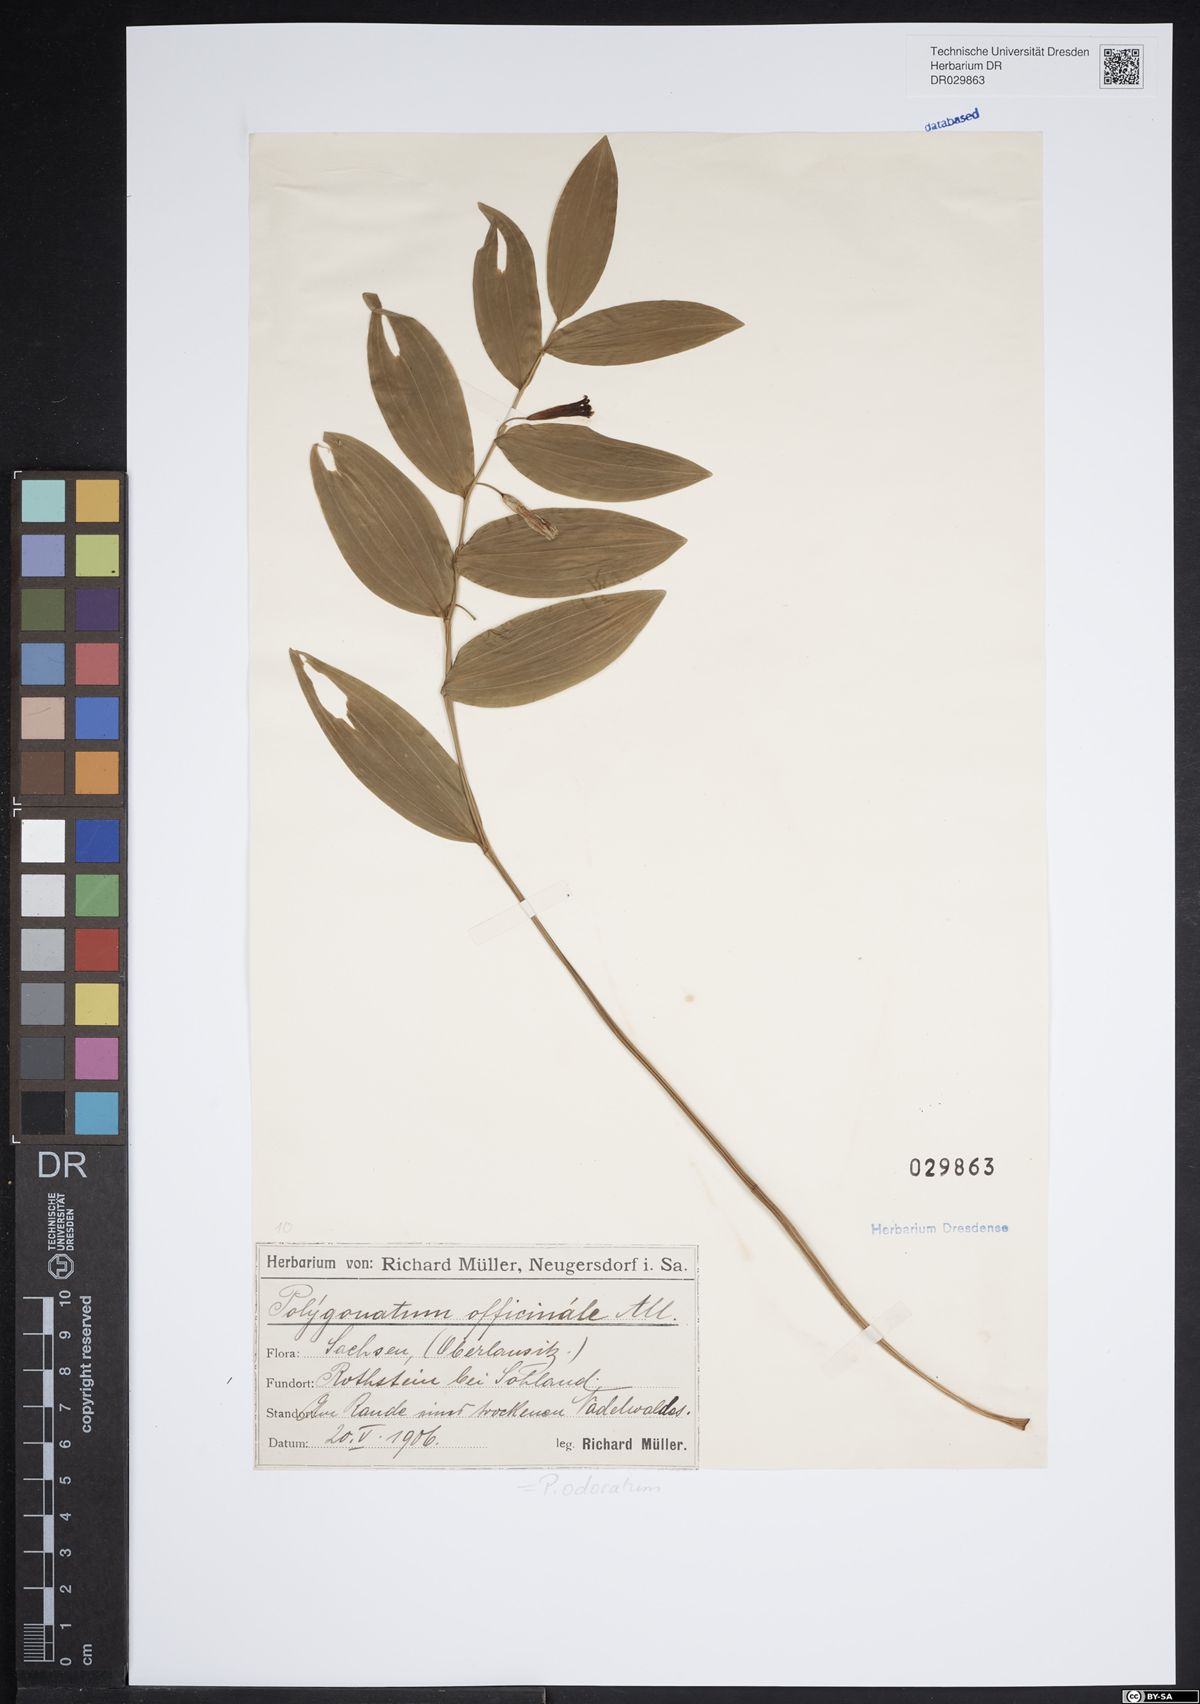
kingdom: Plantae
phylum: Tracheophyta
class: Liliopsida
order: Asparagales
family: Asparagaceae
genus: Polygonatum
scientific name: Polygonatum odoratum
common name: Angular solomon's-seal
